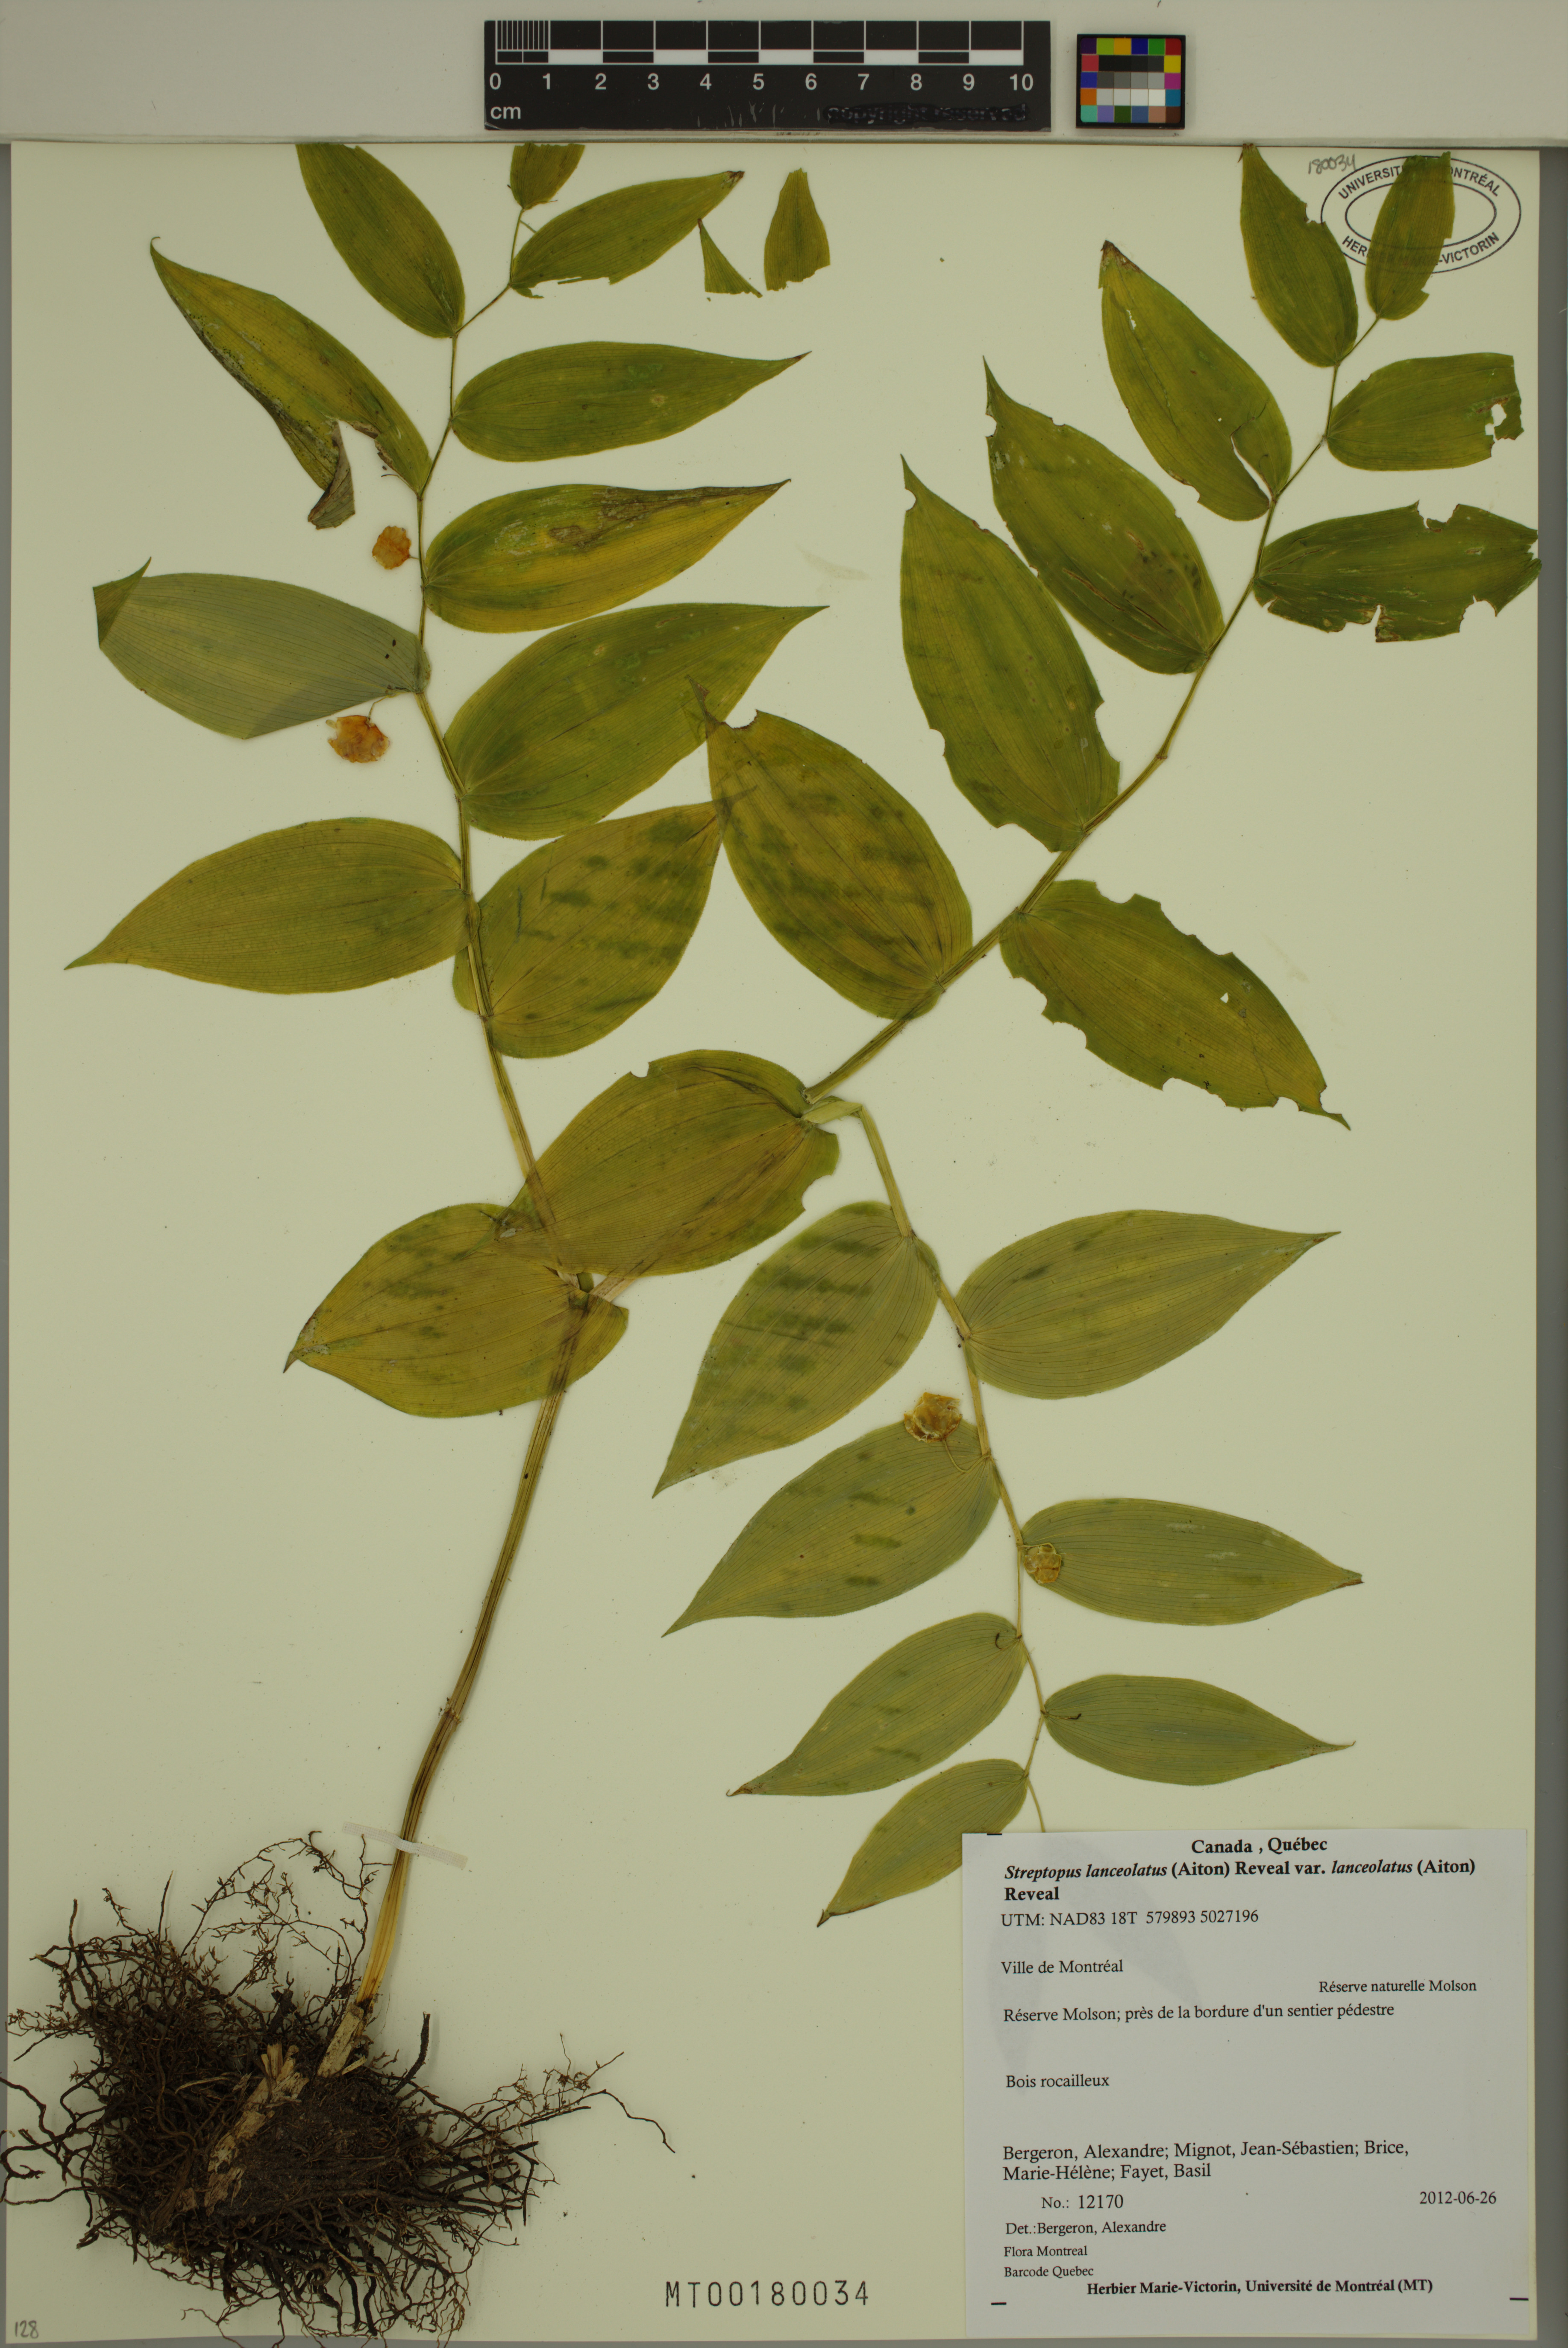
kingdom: Plantae
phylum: Tracheophyta
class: Liliopsida
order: Liliales
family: Liliaceae
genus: Streptopus
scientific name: Streptopus lanceolatus
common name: Rose mandarin
